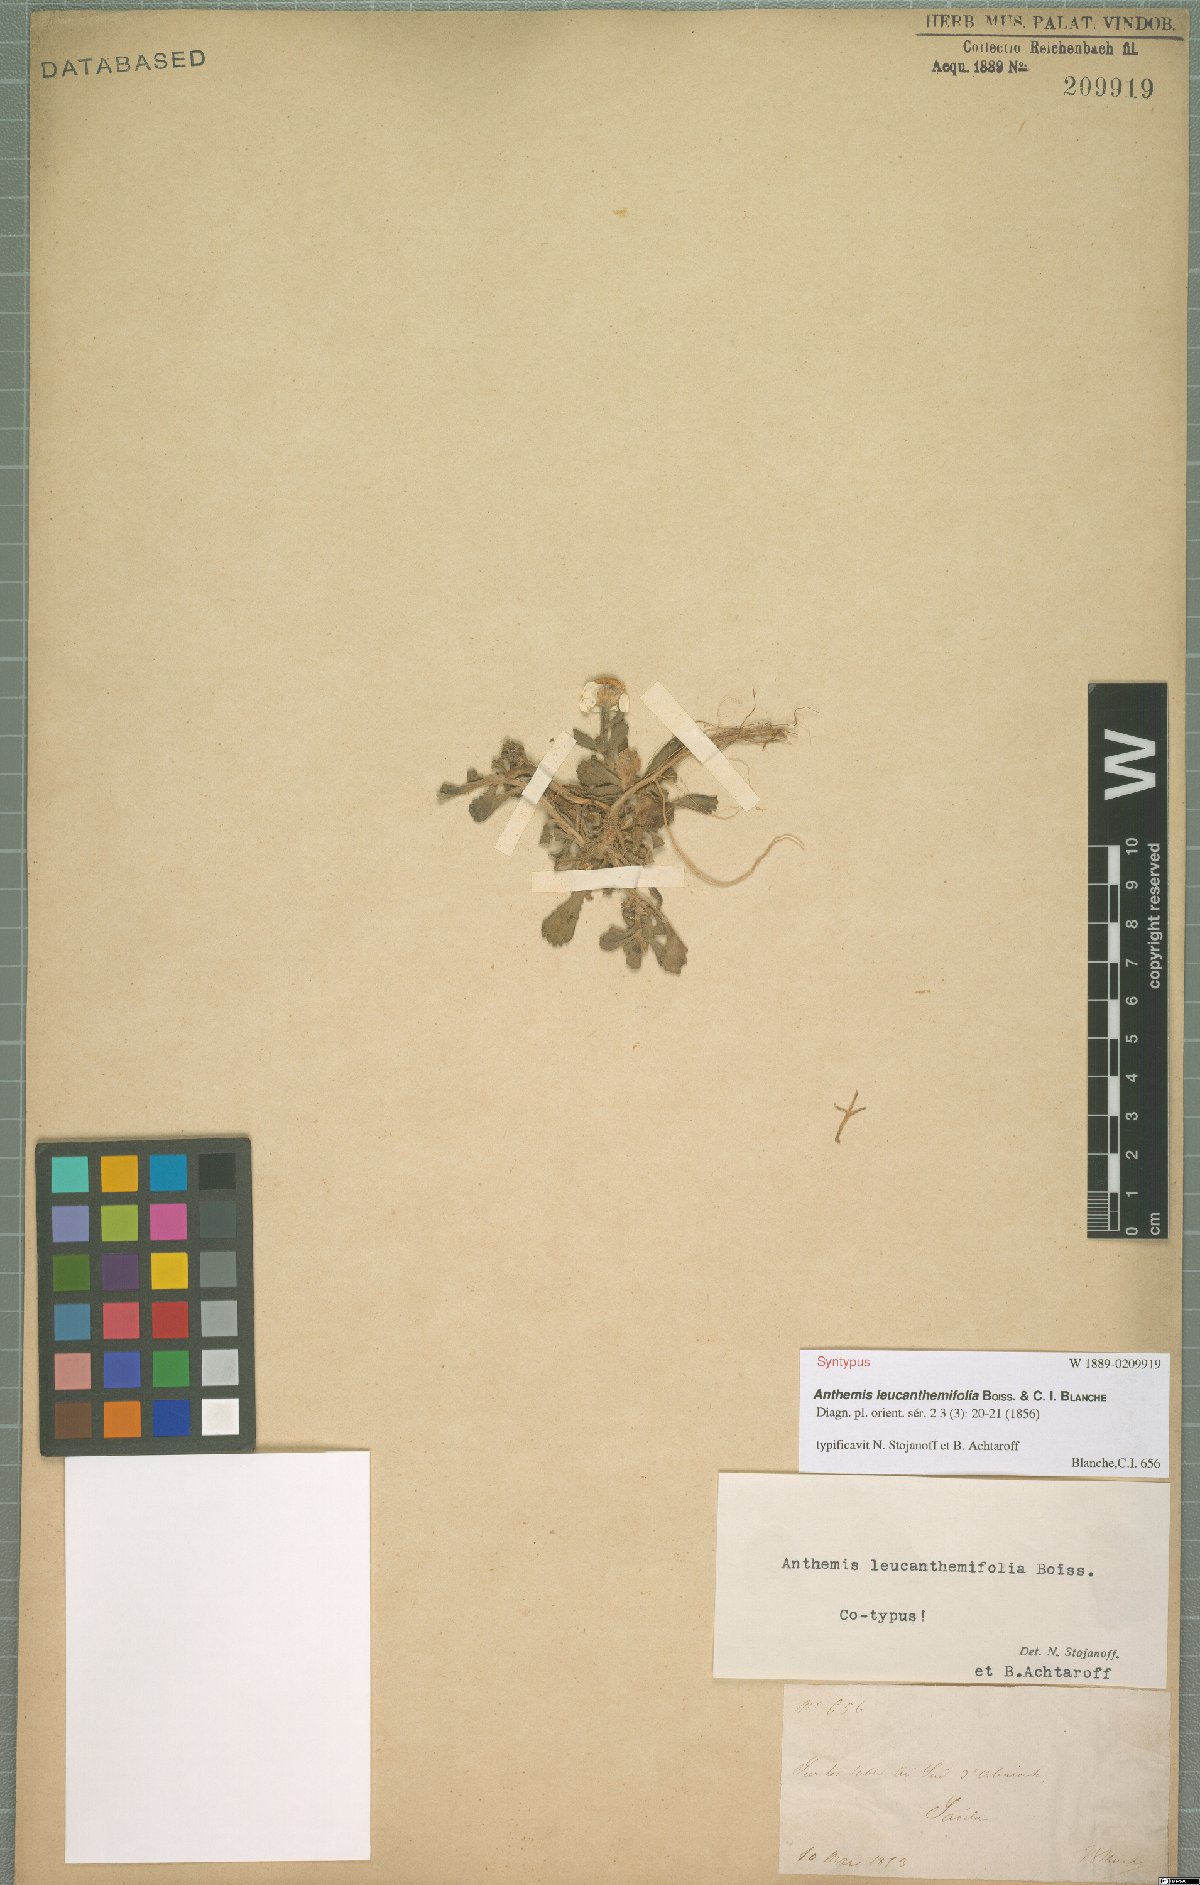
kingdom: Plantae
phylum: Tracheophyta
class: Magnoliopsida
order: Asterales
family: Asteraceae
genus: Anthemis
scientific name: Anthemis leucanthemifolia
